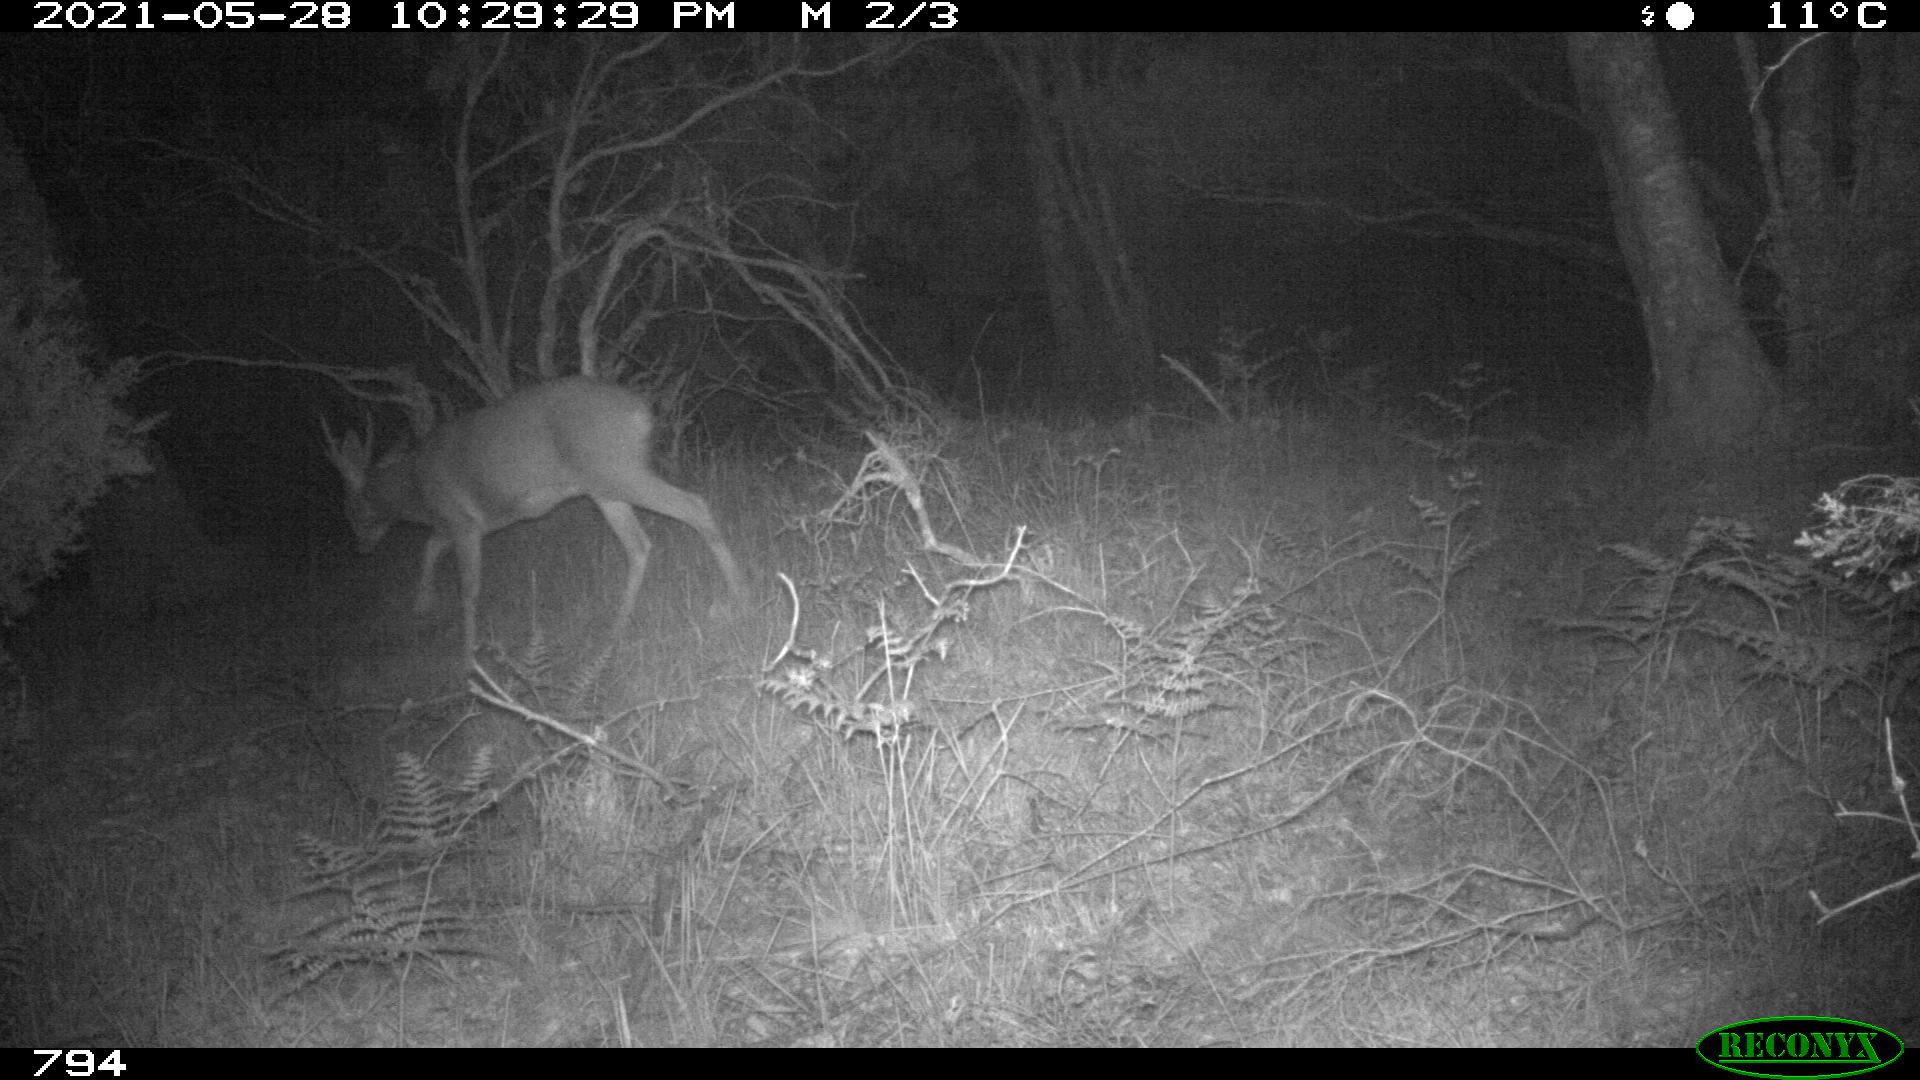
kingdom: Animalia
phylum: Chordata
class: Mammalia
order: Artiodactyla
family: Cervidae
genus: Capreolus
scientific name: Capreolus capreolus
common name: Western roe deer
